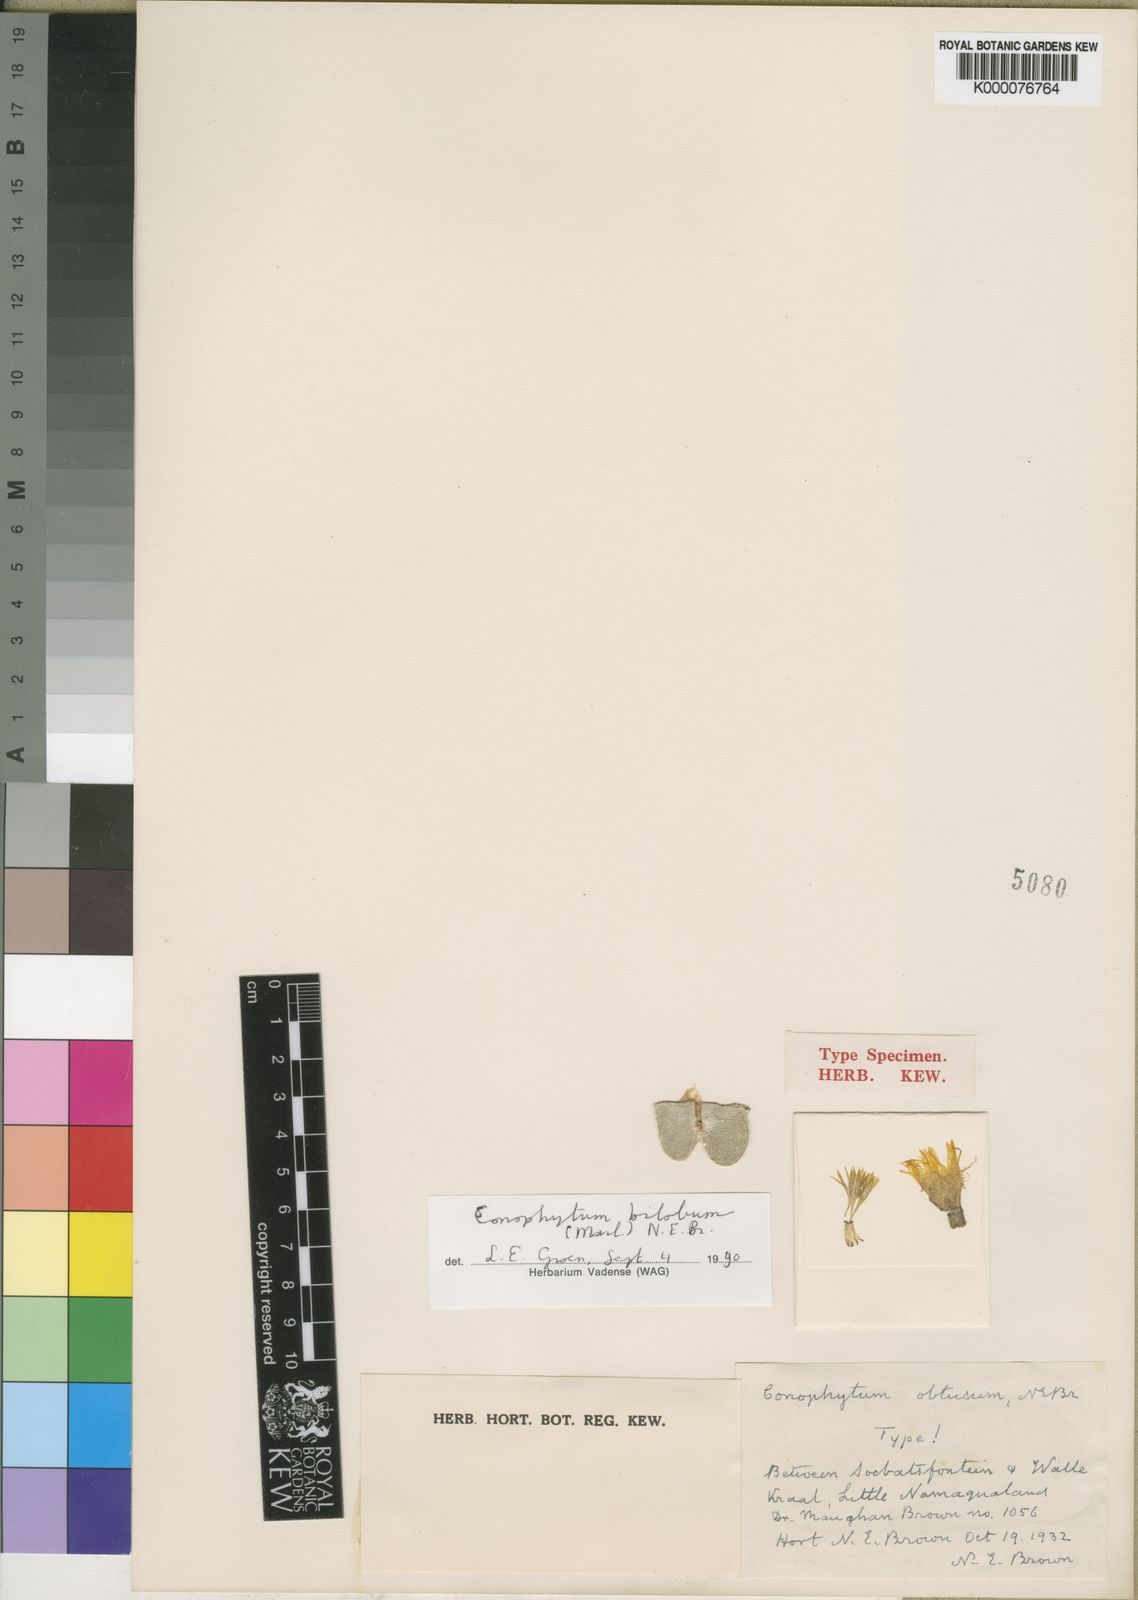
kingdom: Plantae
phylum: Tracheophyta
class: Magnoliopsida
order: Caryophyllales
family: Aizoaceae
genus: Conophytum
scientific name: Conophytum bilobum
